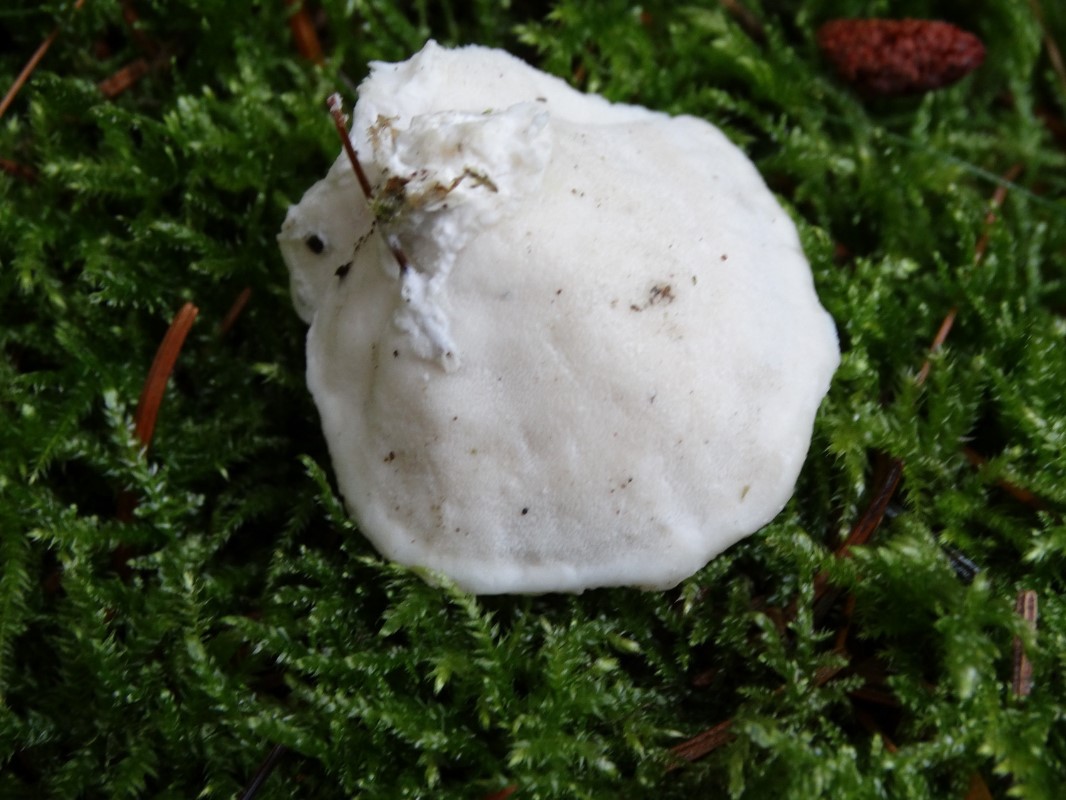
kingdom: Fungi
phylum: Basidiomycota
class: Agaricomycetes
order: Polyporales
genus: Amaropostia
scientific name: Amaropostia stiptica
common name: bitter kødporesvamp
